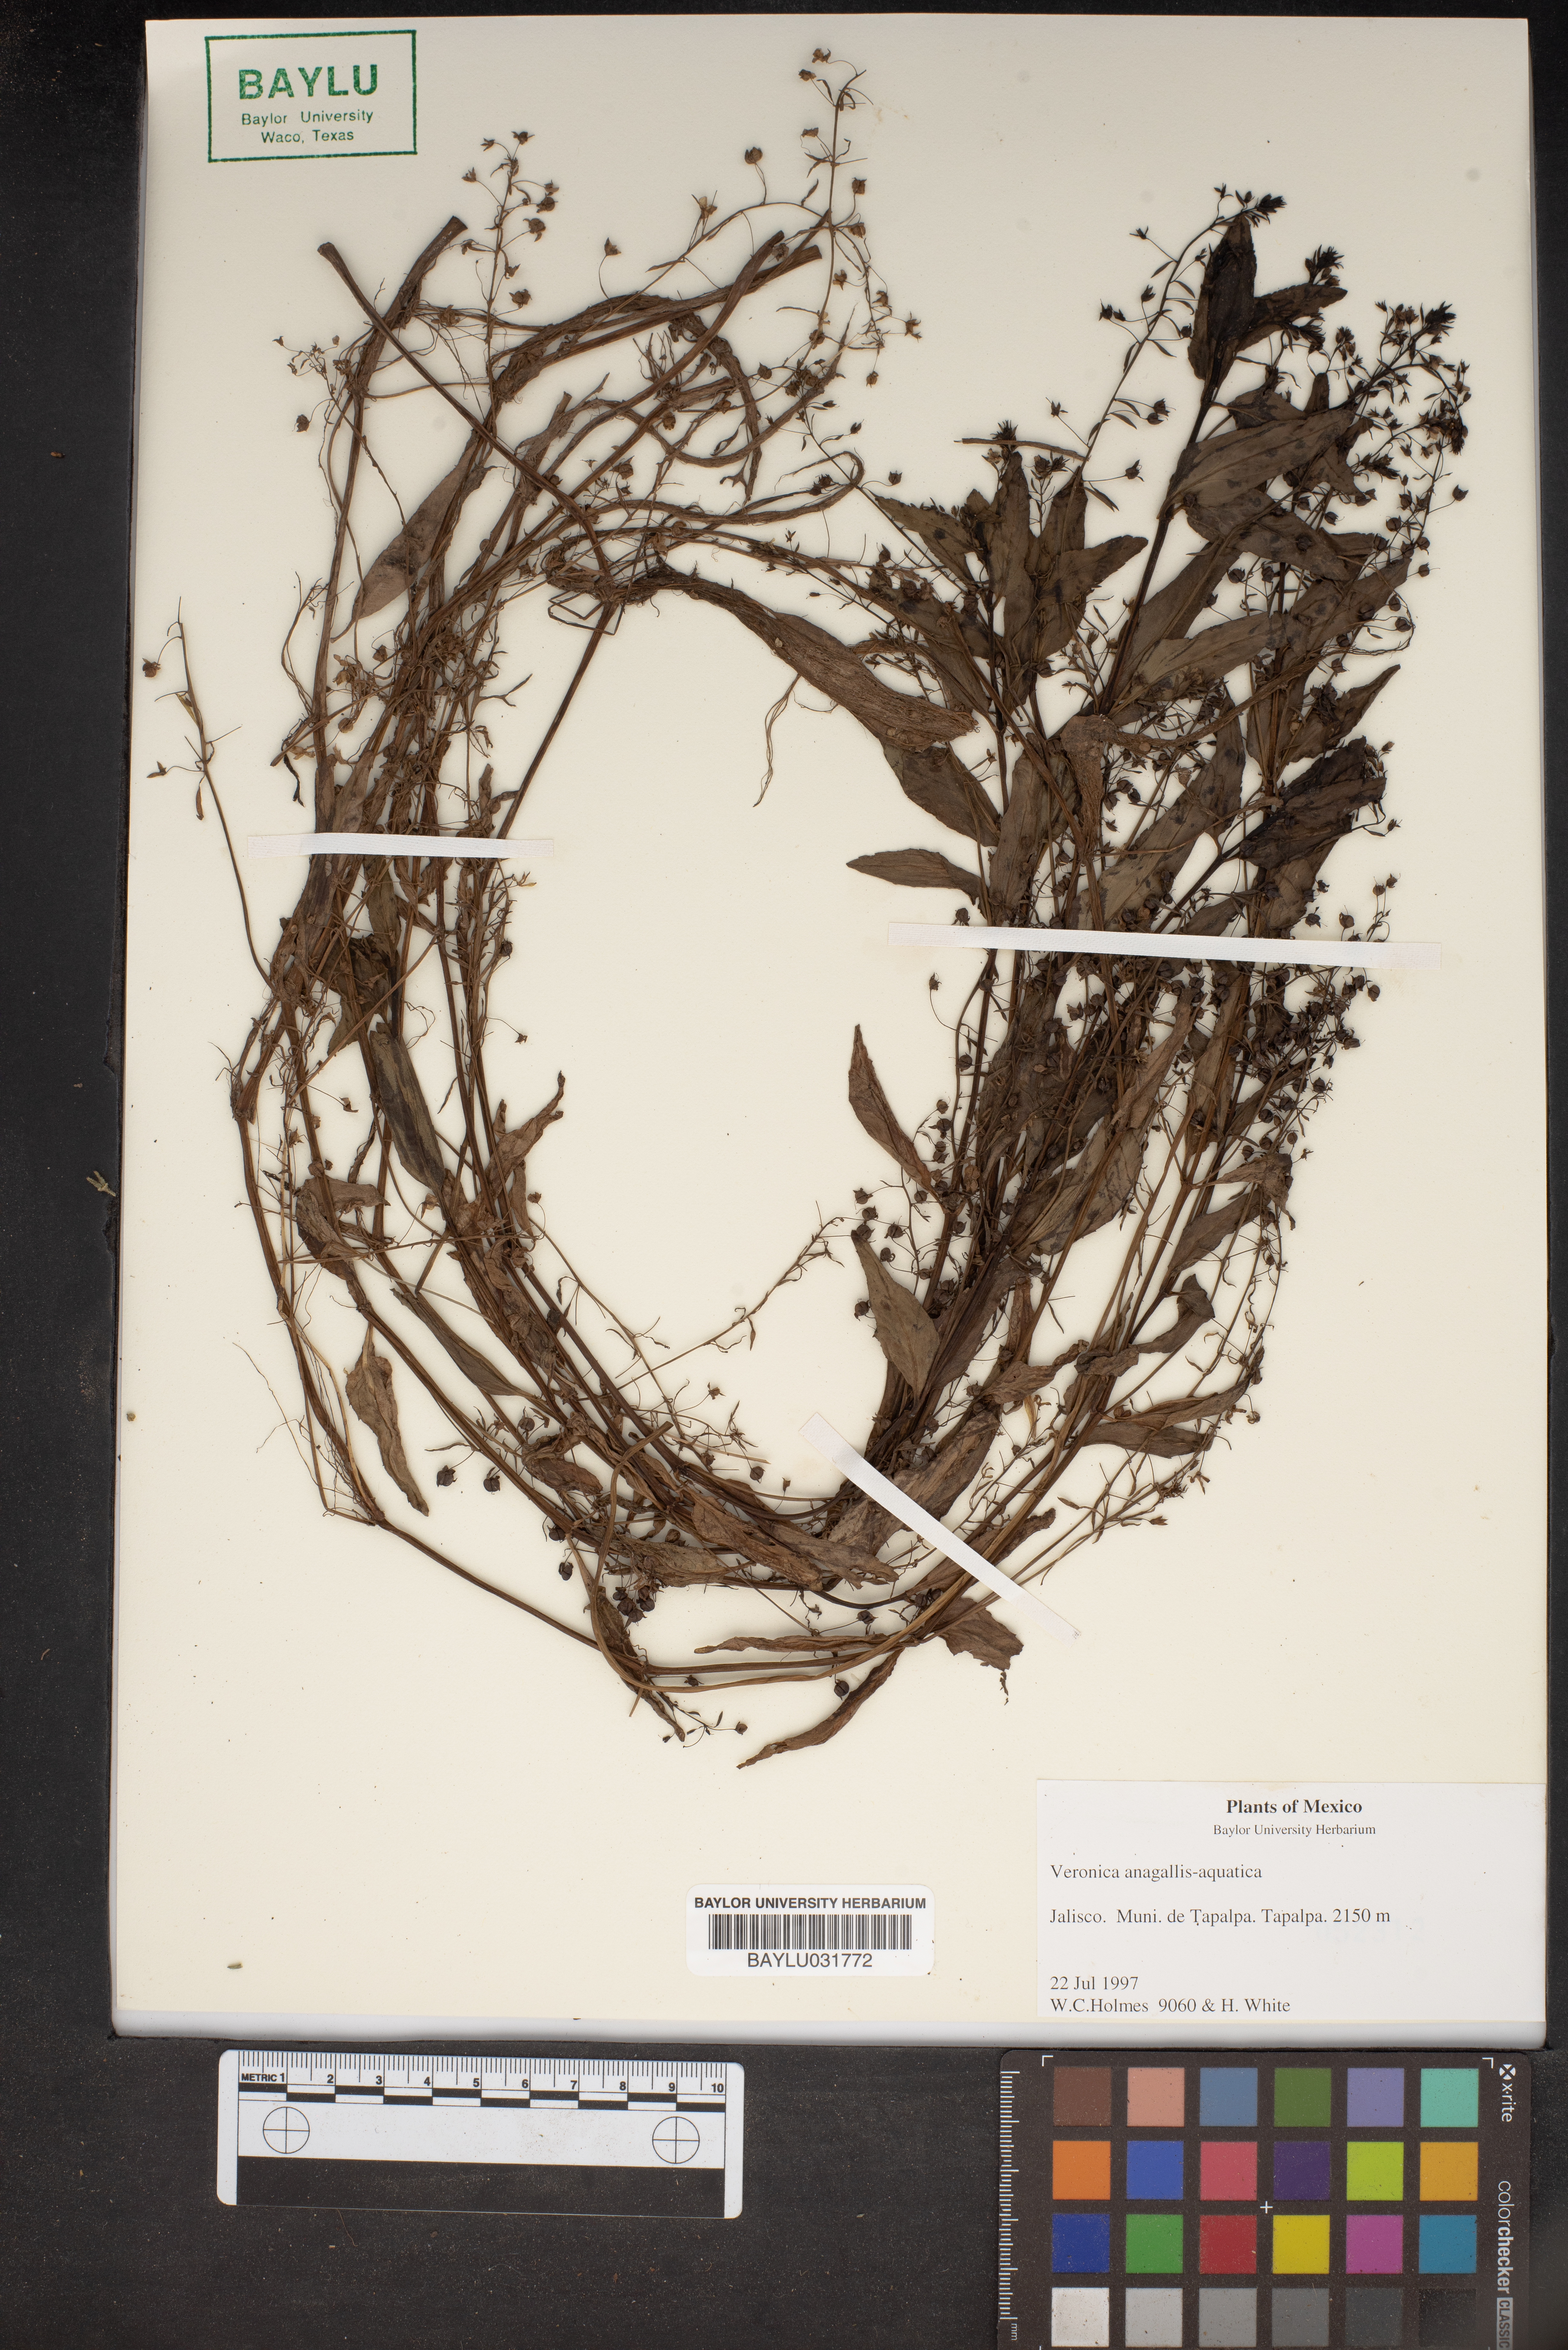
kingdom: Plantae
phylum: Tracheophyta
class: Magnoliopsida
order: Lamiales
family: Plantaginaceae
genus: Veronica
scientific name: Veronica anagallis-aquatica
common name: Water speedwell
